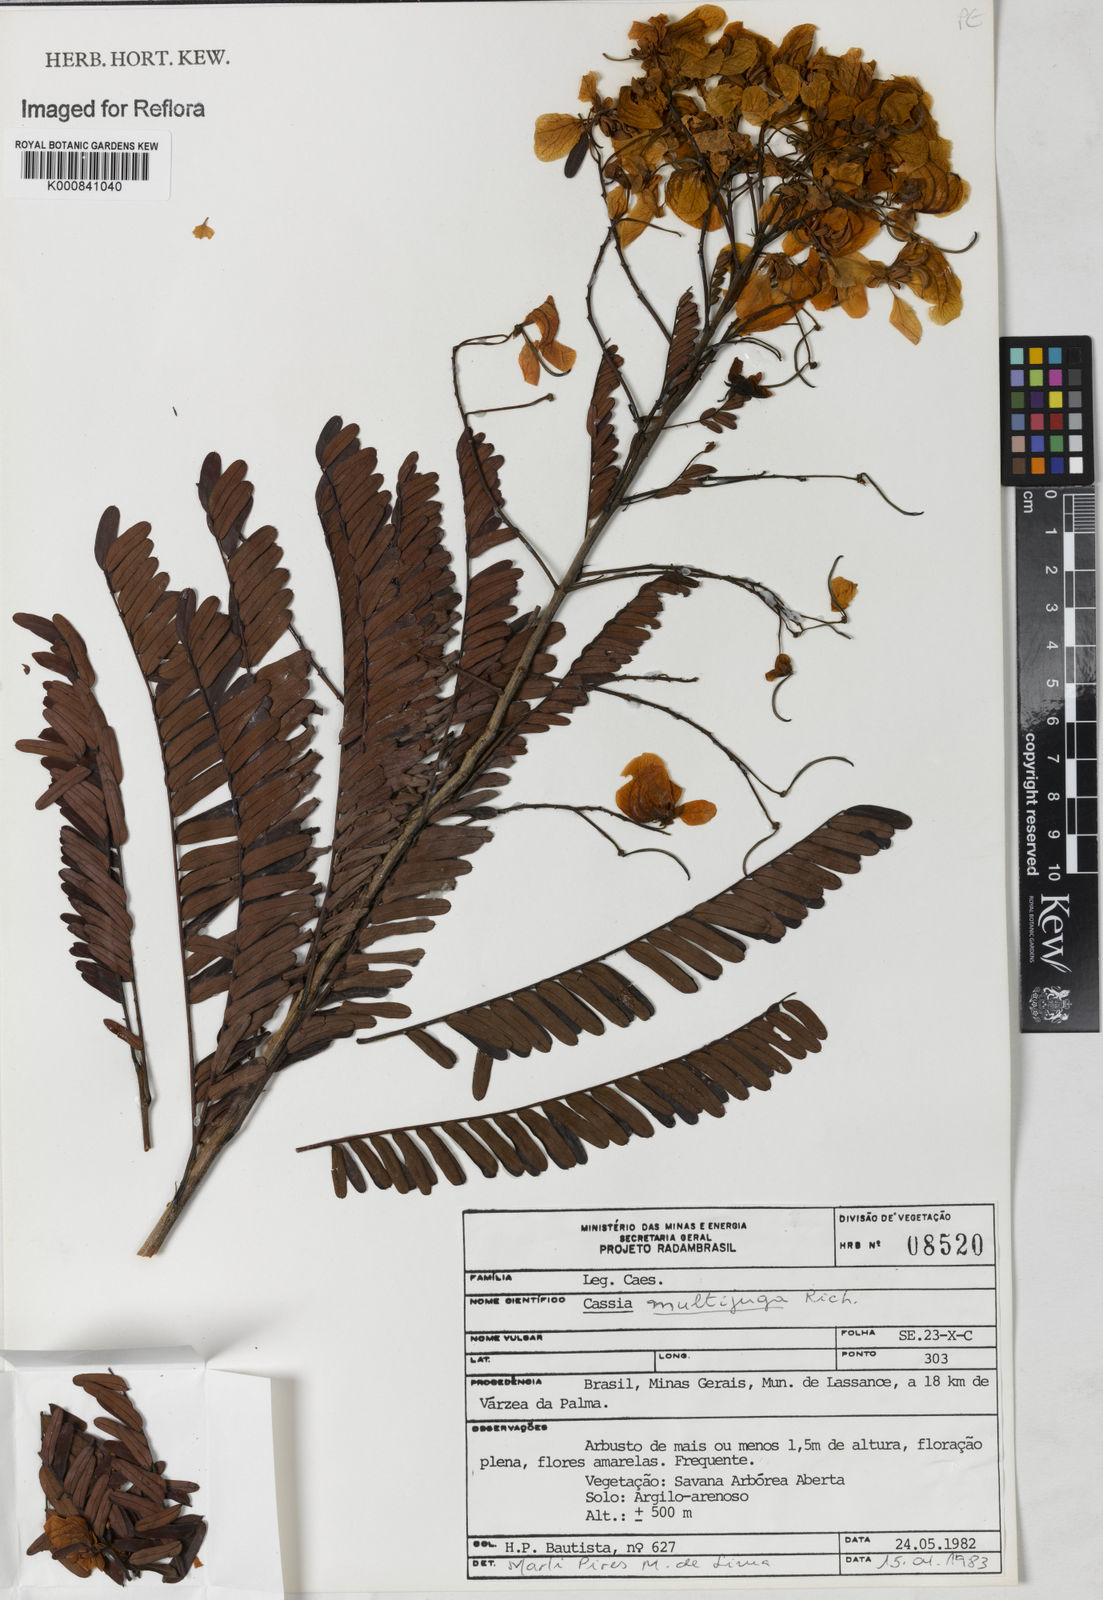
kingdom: Plantae
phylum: Tracheophyta
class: Magnoliopsida
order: Fabales
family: Fabaceae
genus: Senna
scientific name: Senna multijuga
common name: False sicklepod
